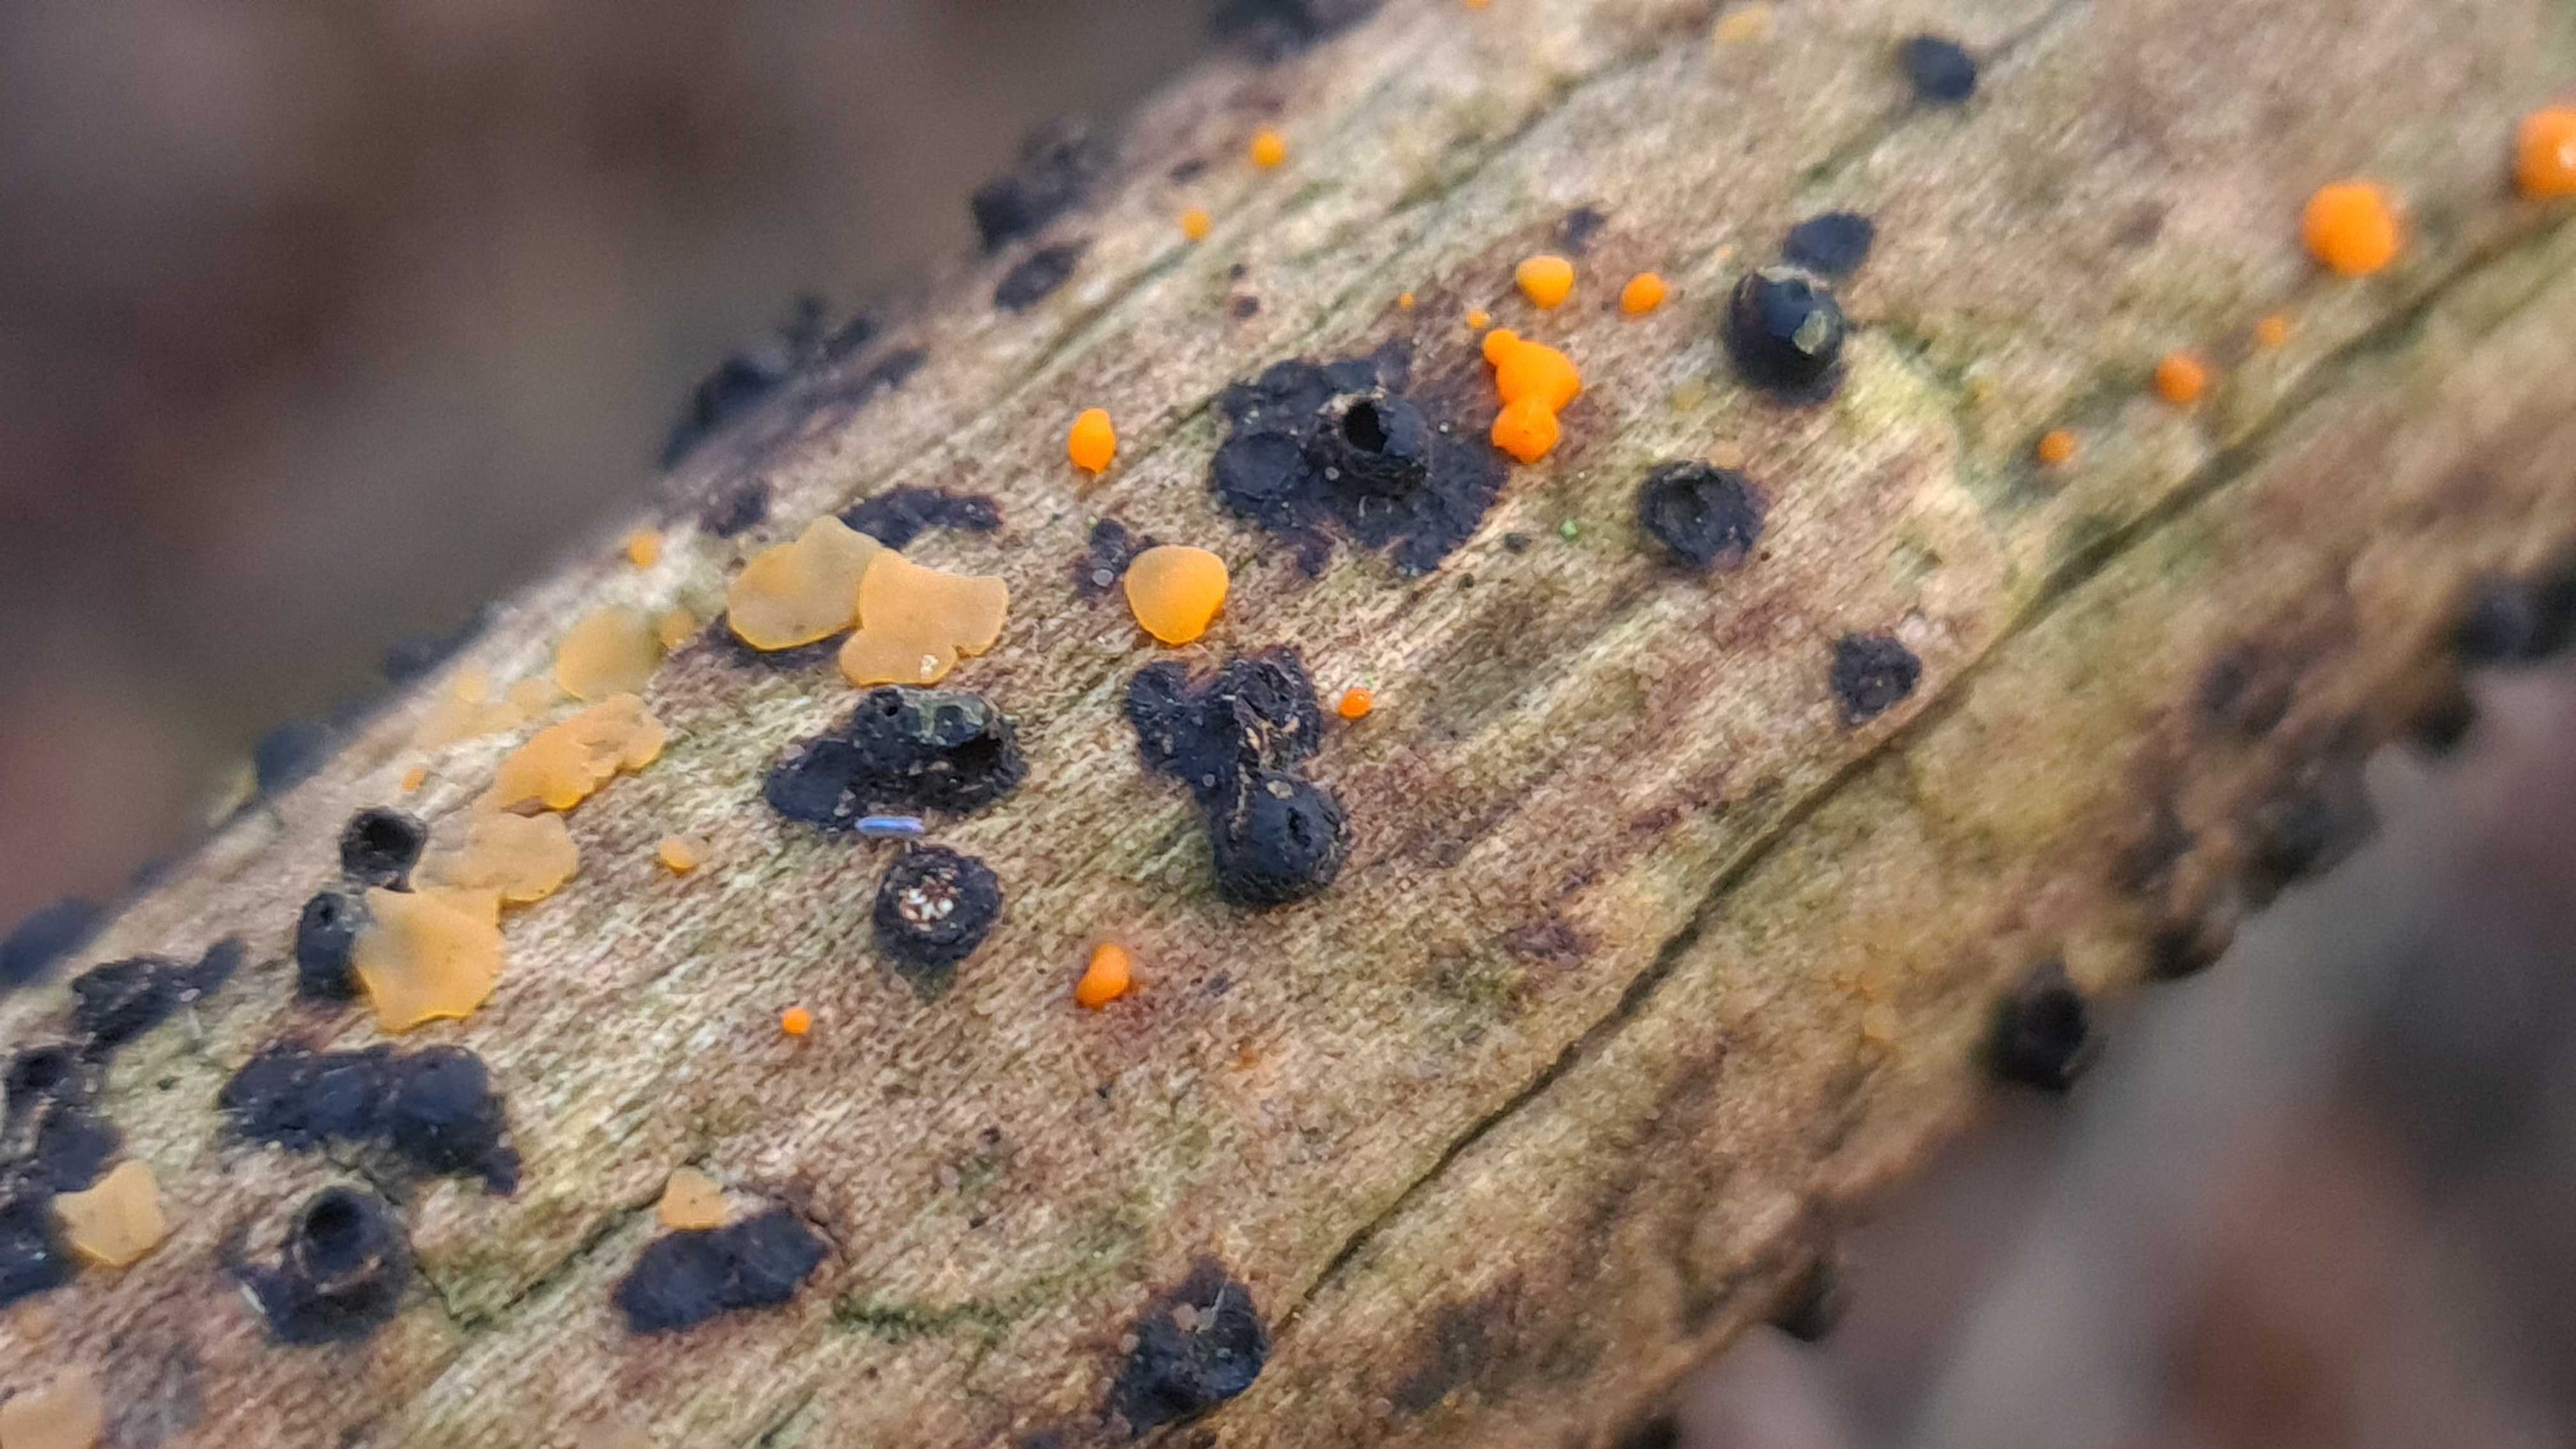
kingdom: Fungi
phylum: Basidiomycota
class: Dacrymycetes
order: Dacrymycetales
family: Dacrymycetaceae
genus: Dacrymyces
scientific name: Dacrymyces stillatus
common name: almindelig tåresvamp
